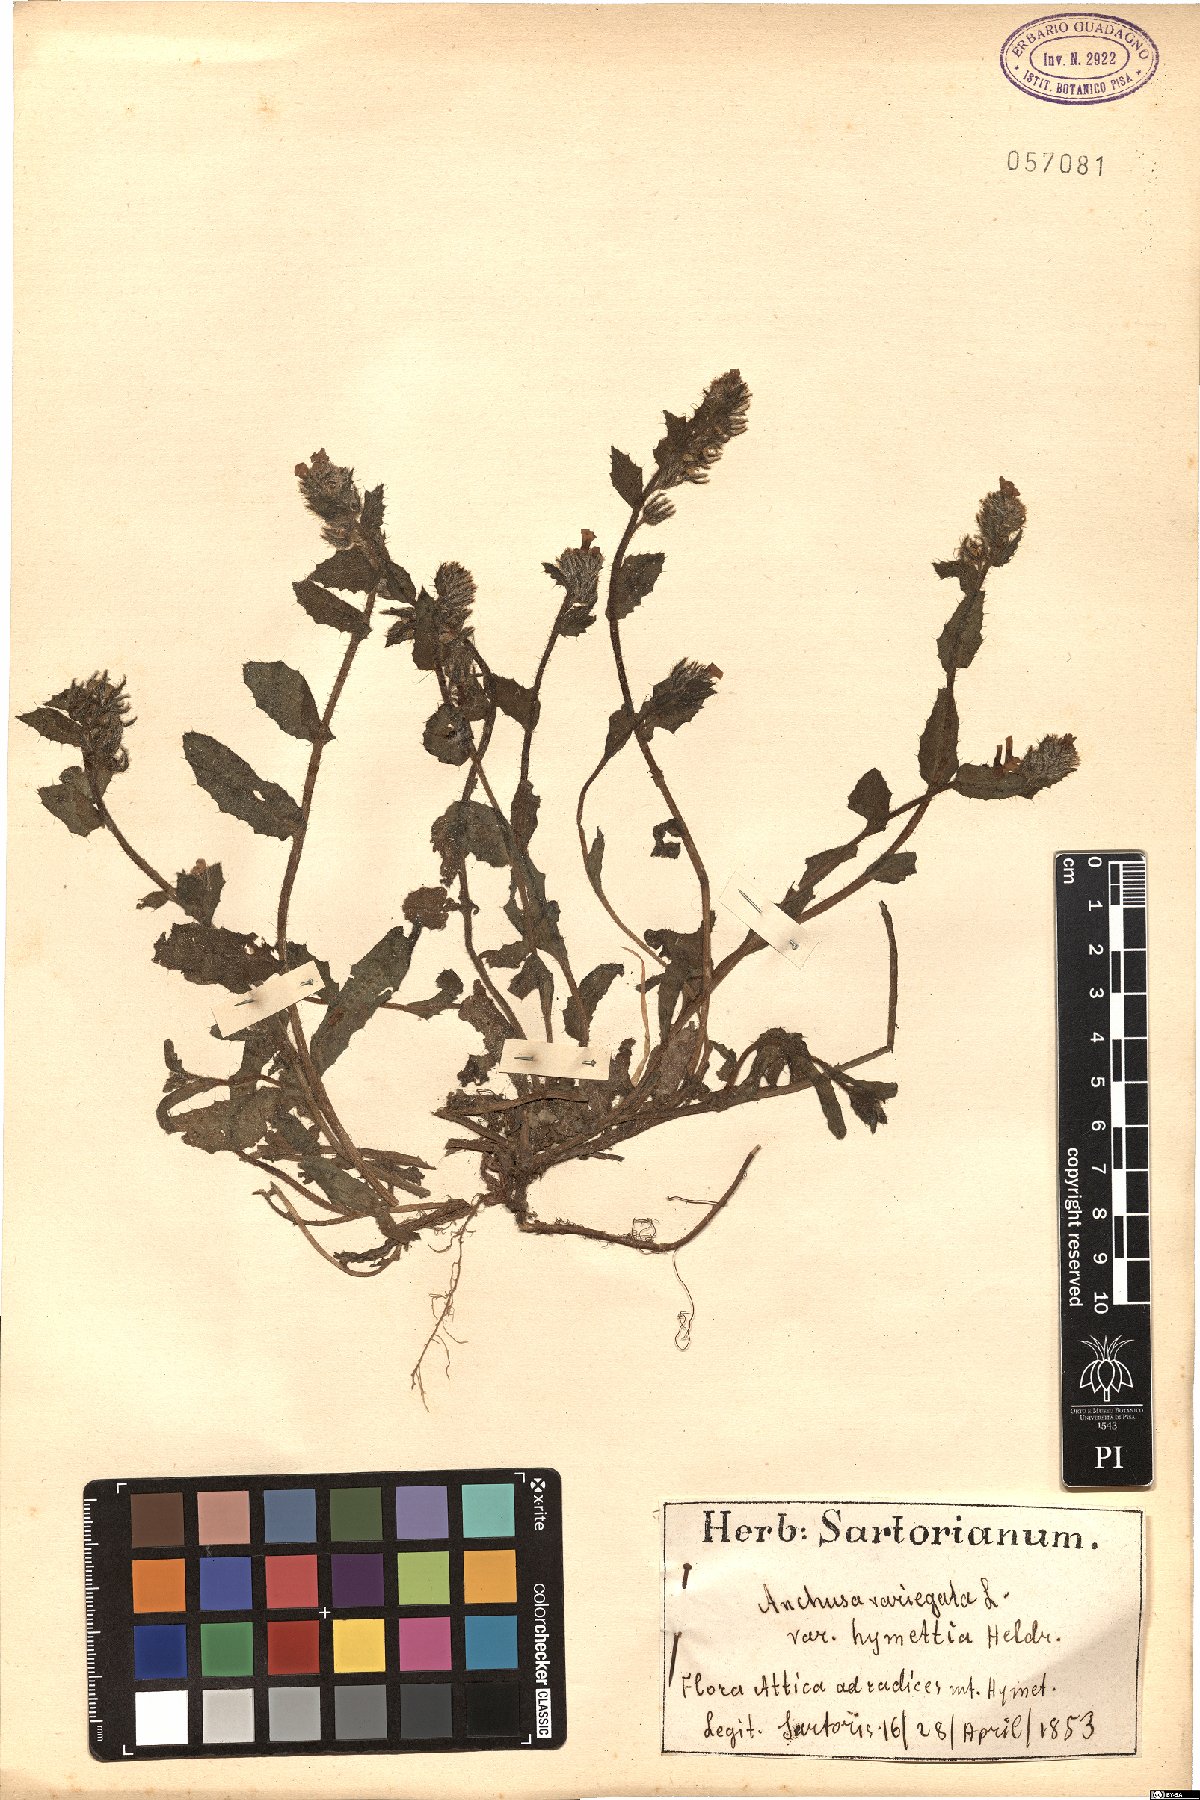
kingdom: Plantae
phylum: Tracheophyta
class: Magnoliopsida
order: Boraginales
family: Boraginaceae
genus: Anchusella
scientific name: Anchusella variegata
